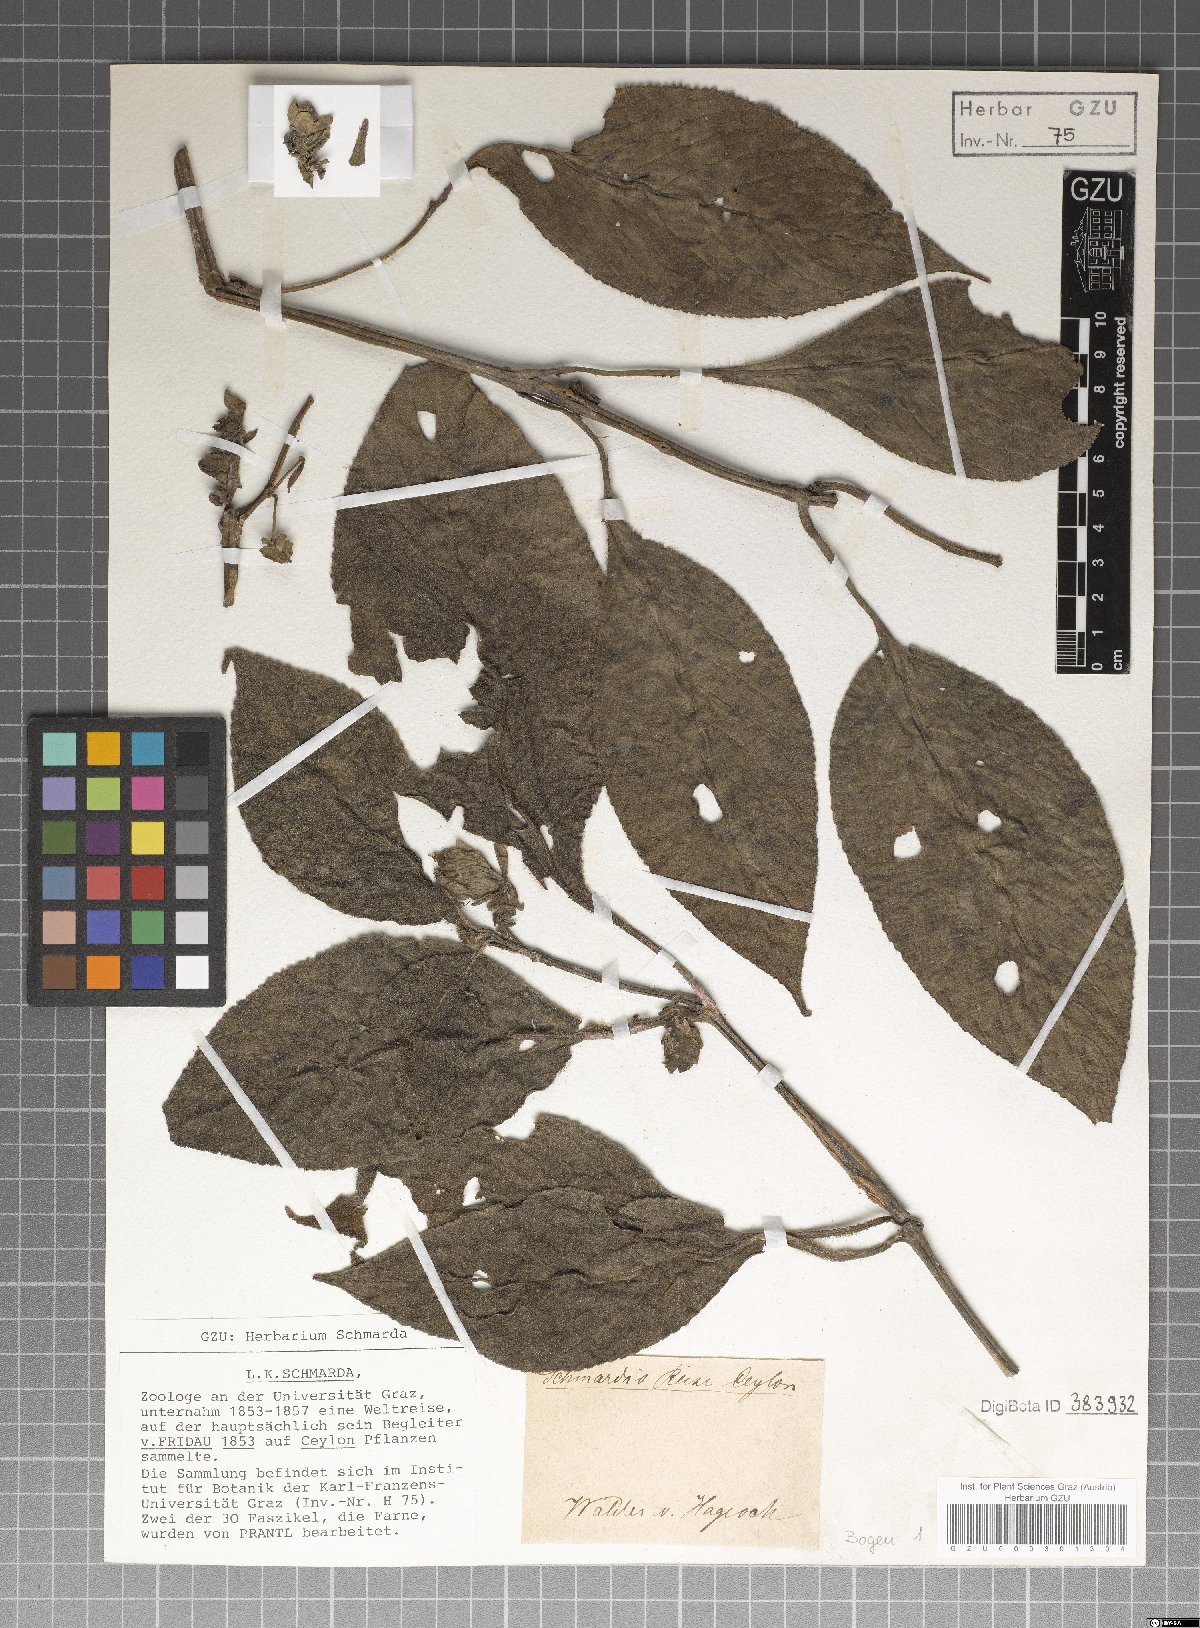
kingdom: Plantae
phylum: Tracheophyta
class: Magnoliopsida
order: Lamiales
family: Acanthaceae
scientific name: Acanthaceae
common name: Acanthaceae
